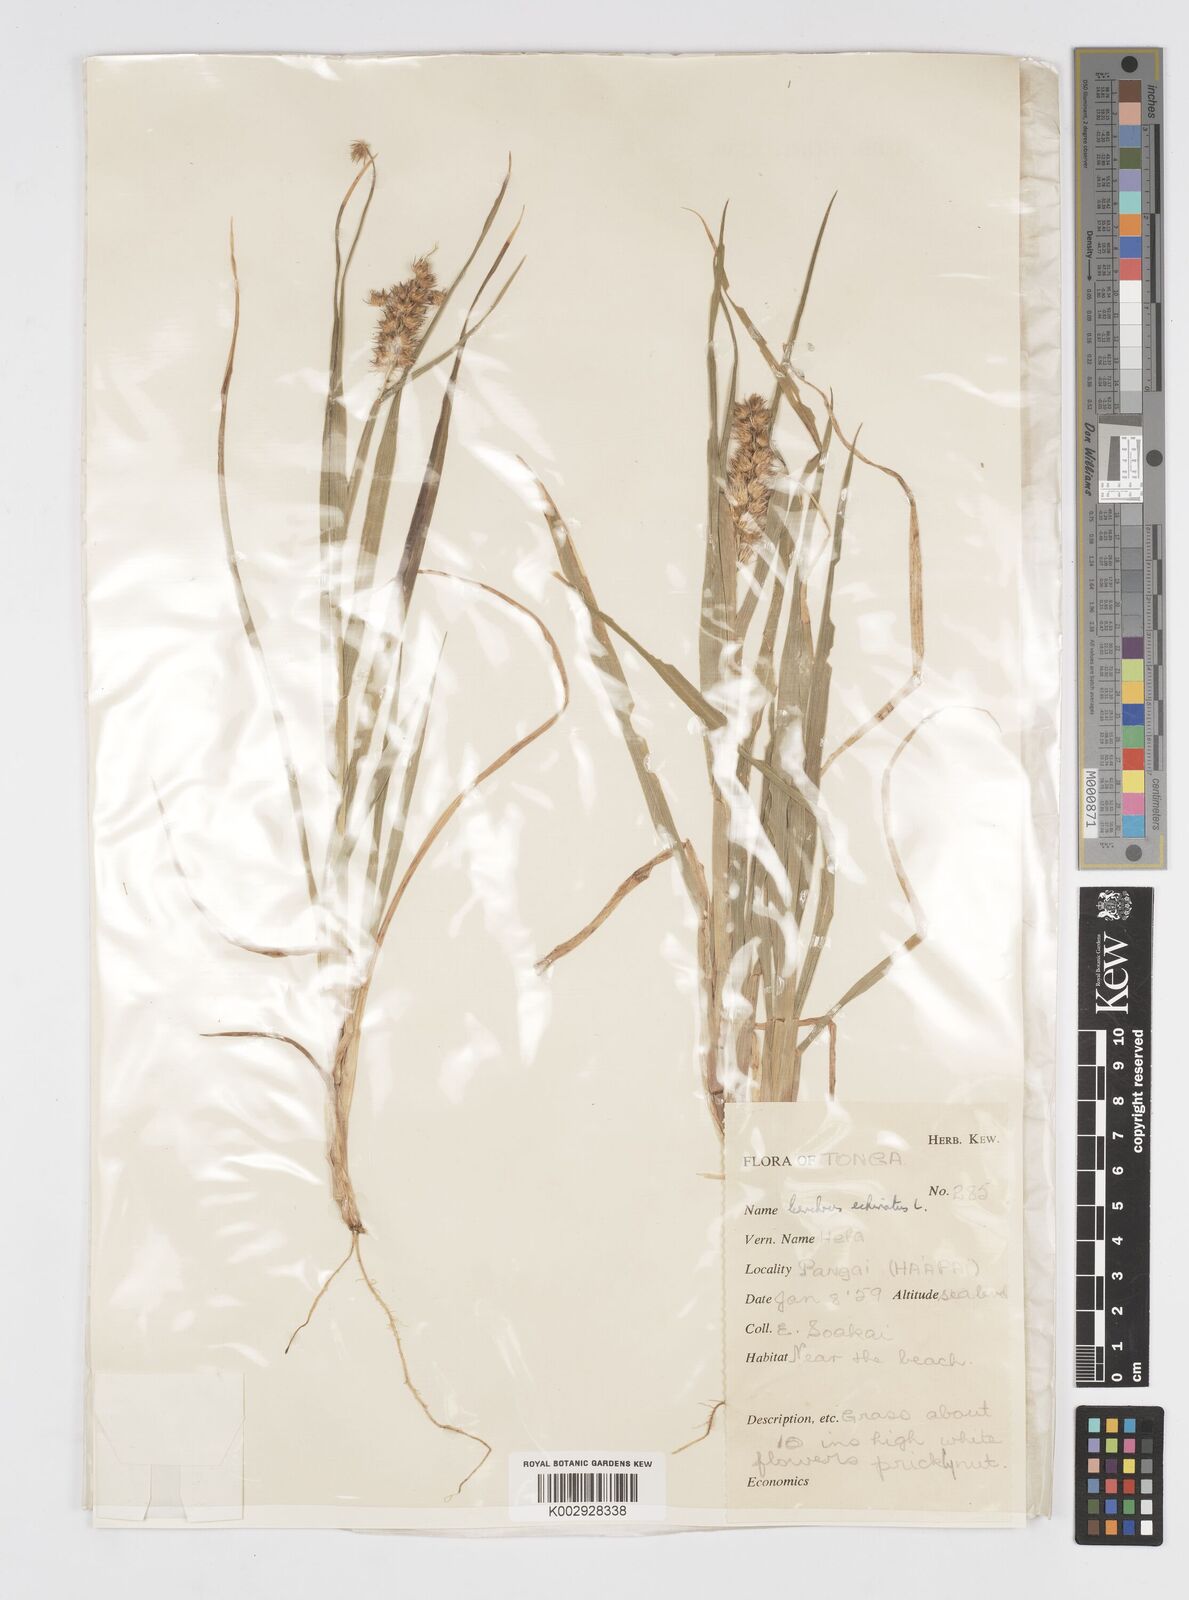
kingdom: Plantae
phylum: Tracheophyta
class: Liliopsida
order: Poales
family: Poaceae
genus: Cenchrus
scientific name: Cenchrus echinatus
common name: Southern sandbur
